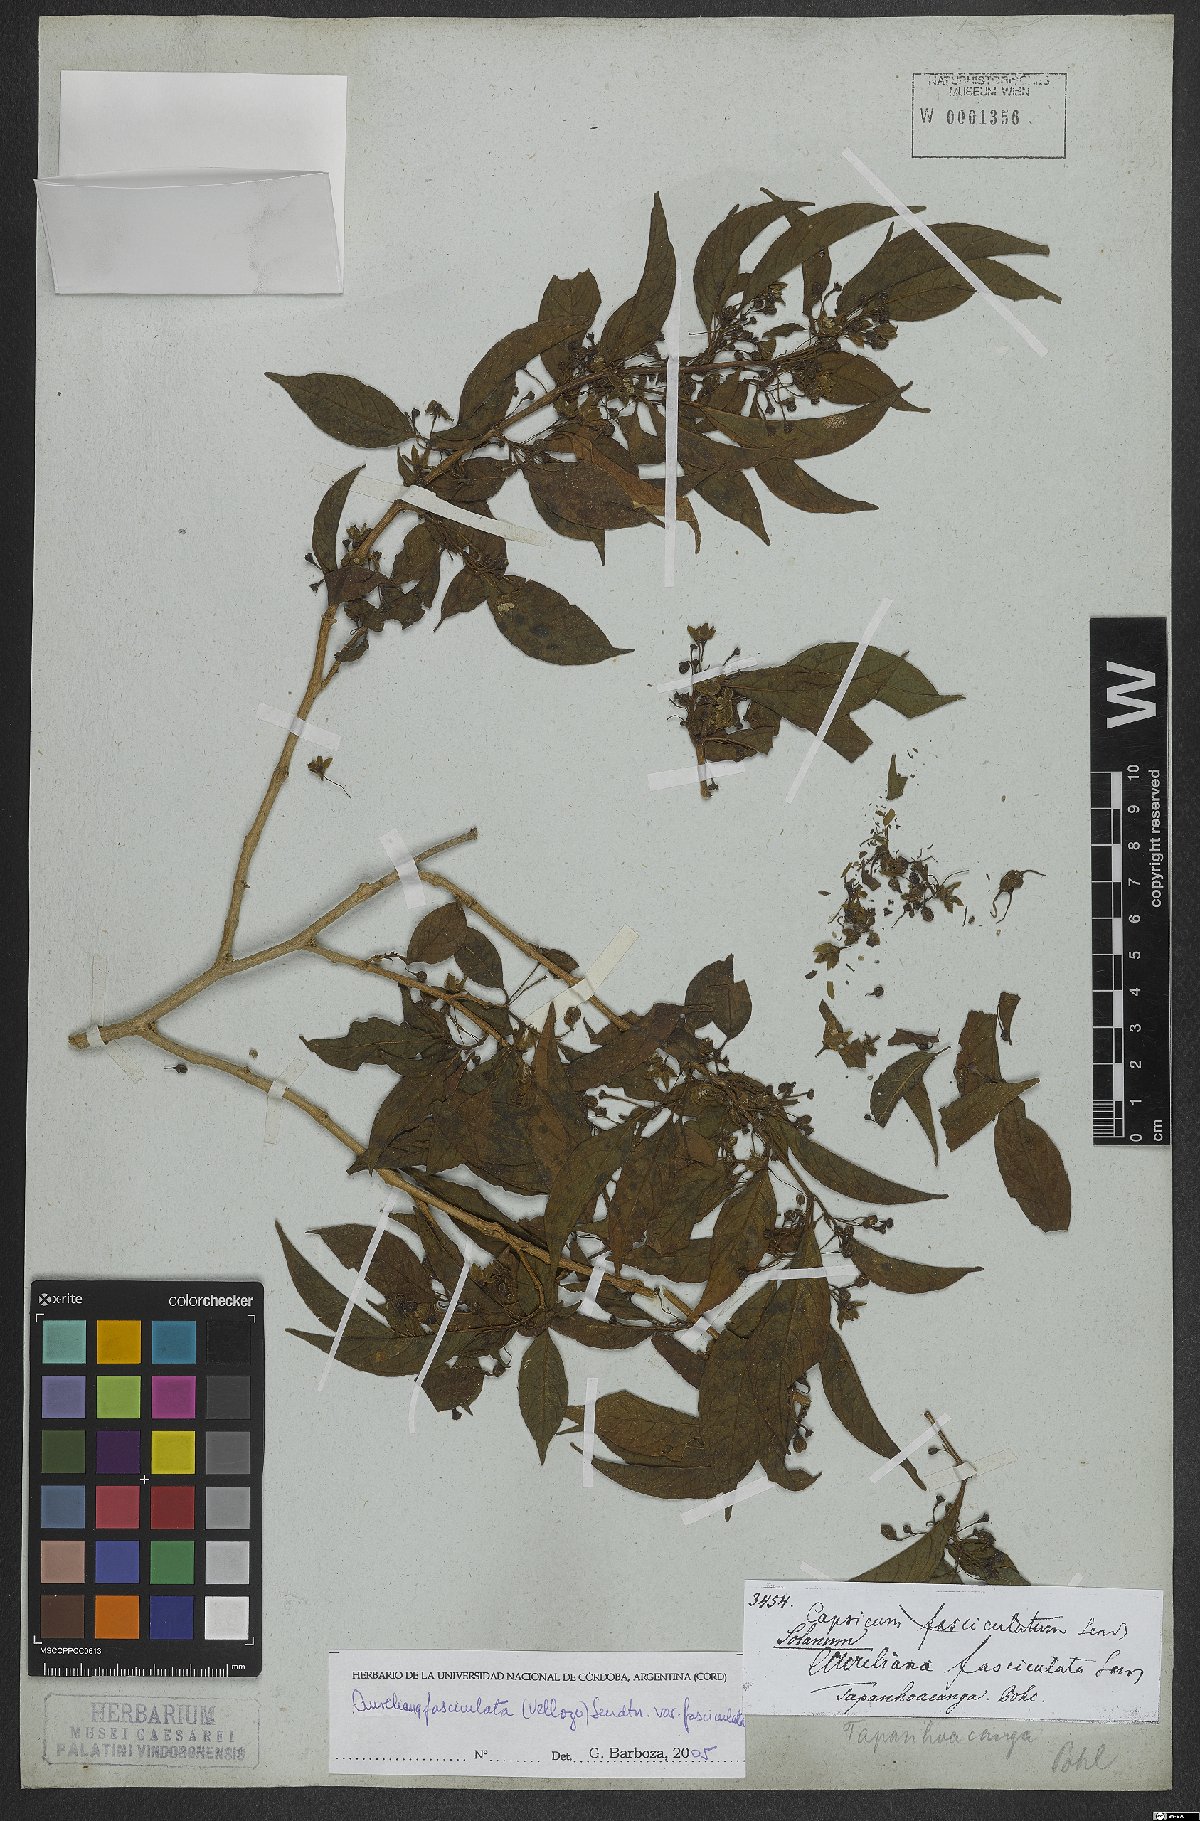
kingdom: Plantae
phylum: Tracheophyta
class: Magnoliopsida
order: Solanales
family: Solanaceae
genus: Athenaea
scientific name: Athenaea fasciculata
